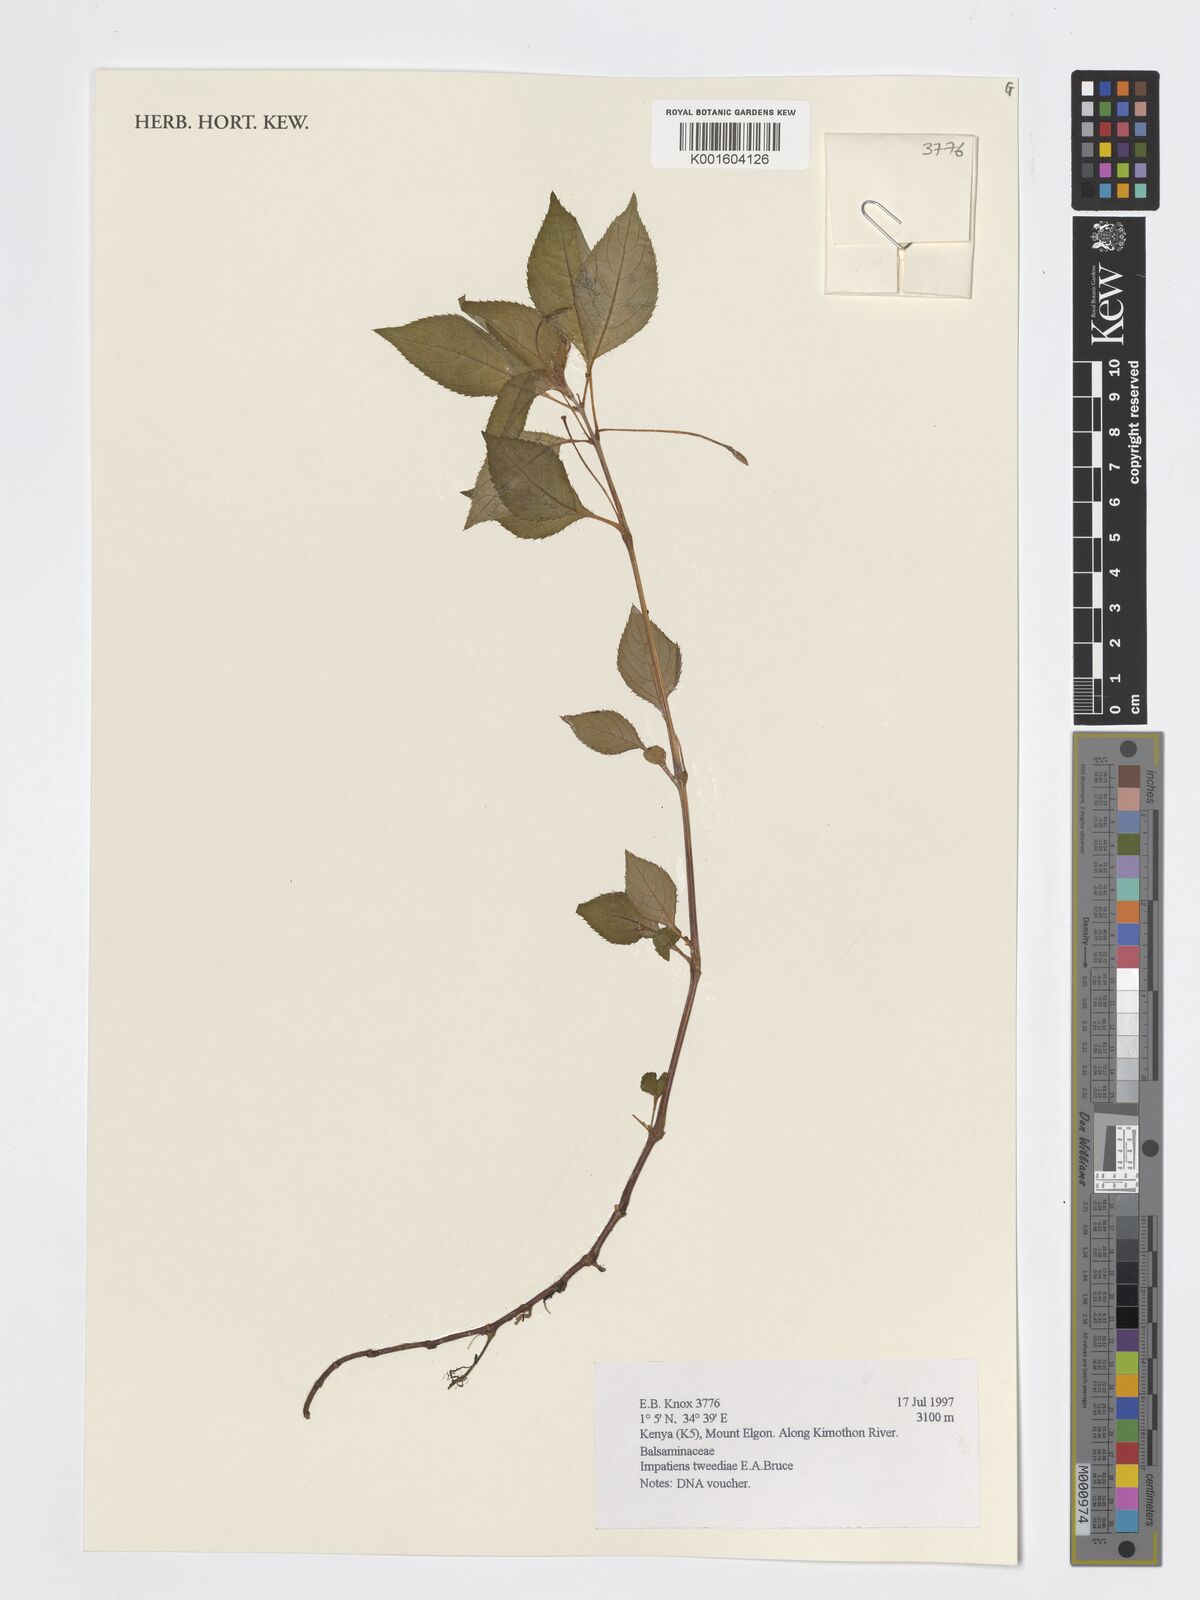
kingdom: Plantae
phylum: Tracheophyta
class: Magnoliopsida
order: Ericales
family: Balsaminaceae
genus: Impatiens
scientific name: Impatiens tweedieae
